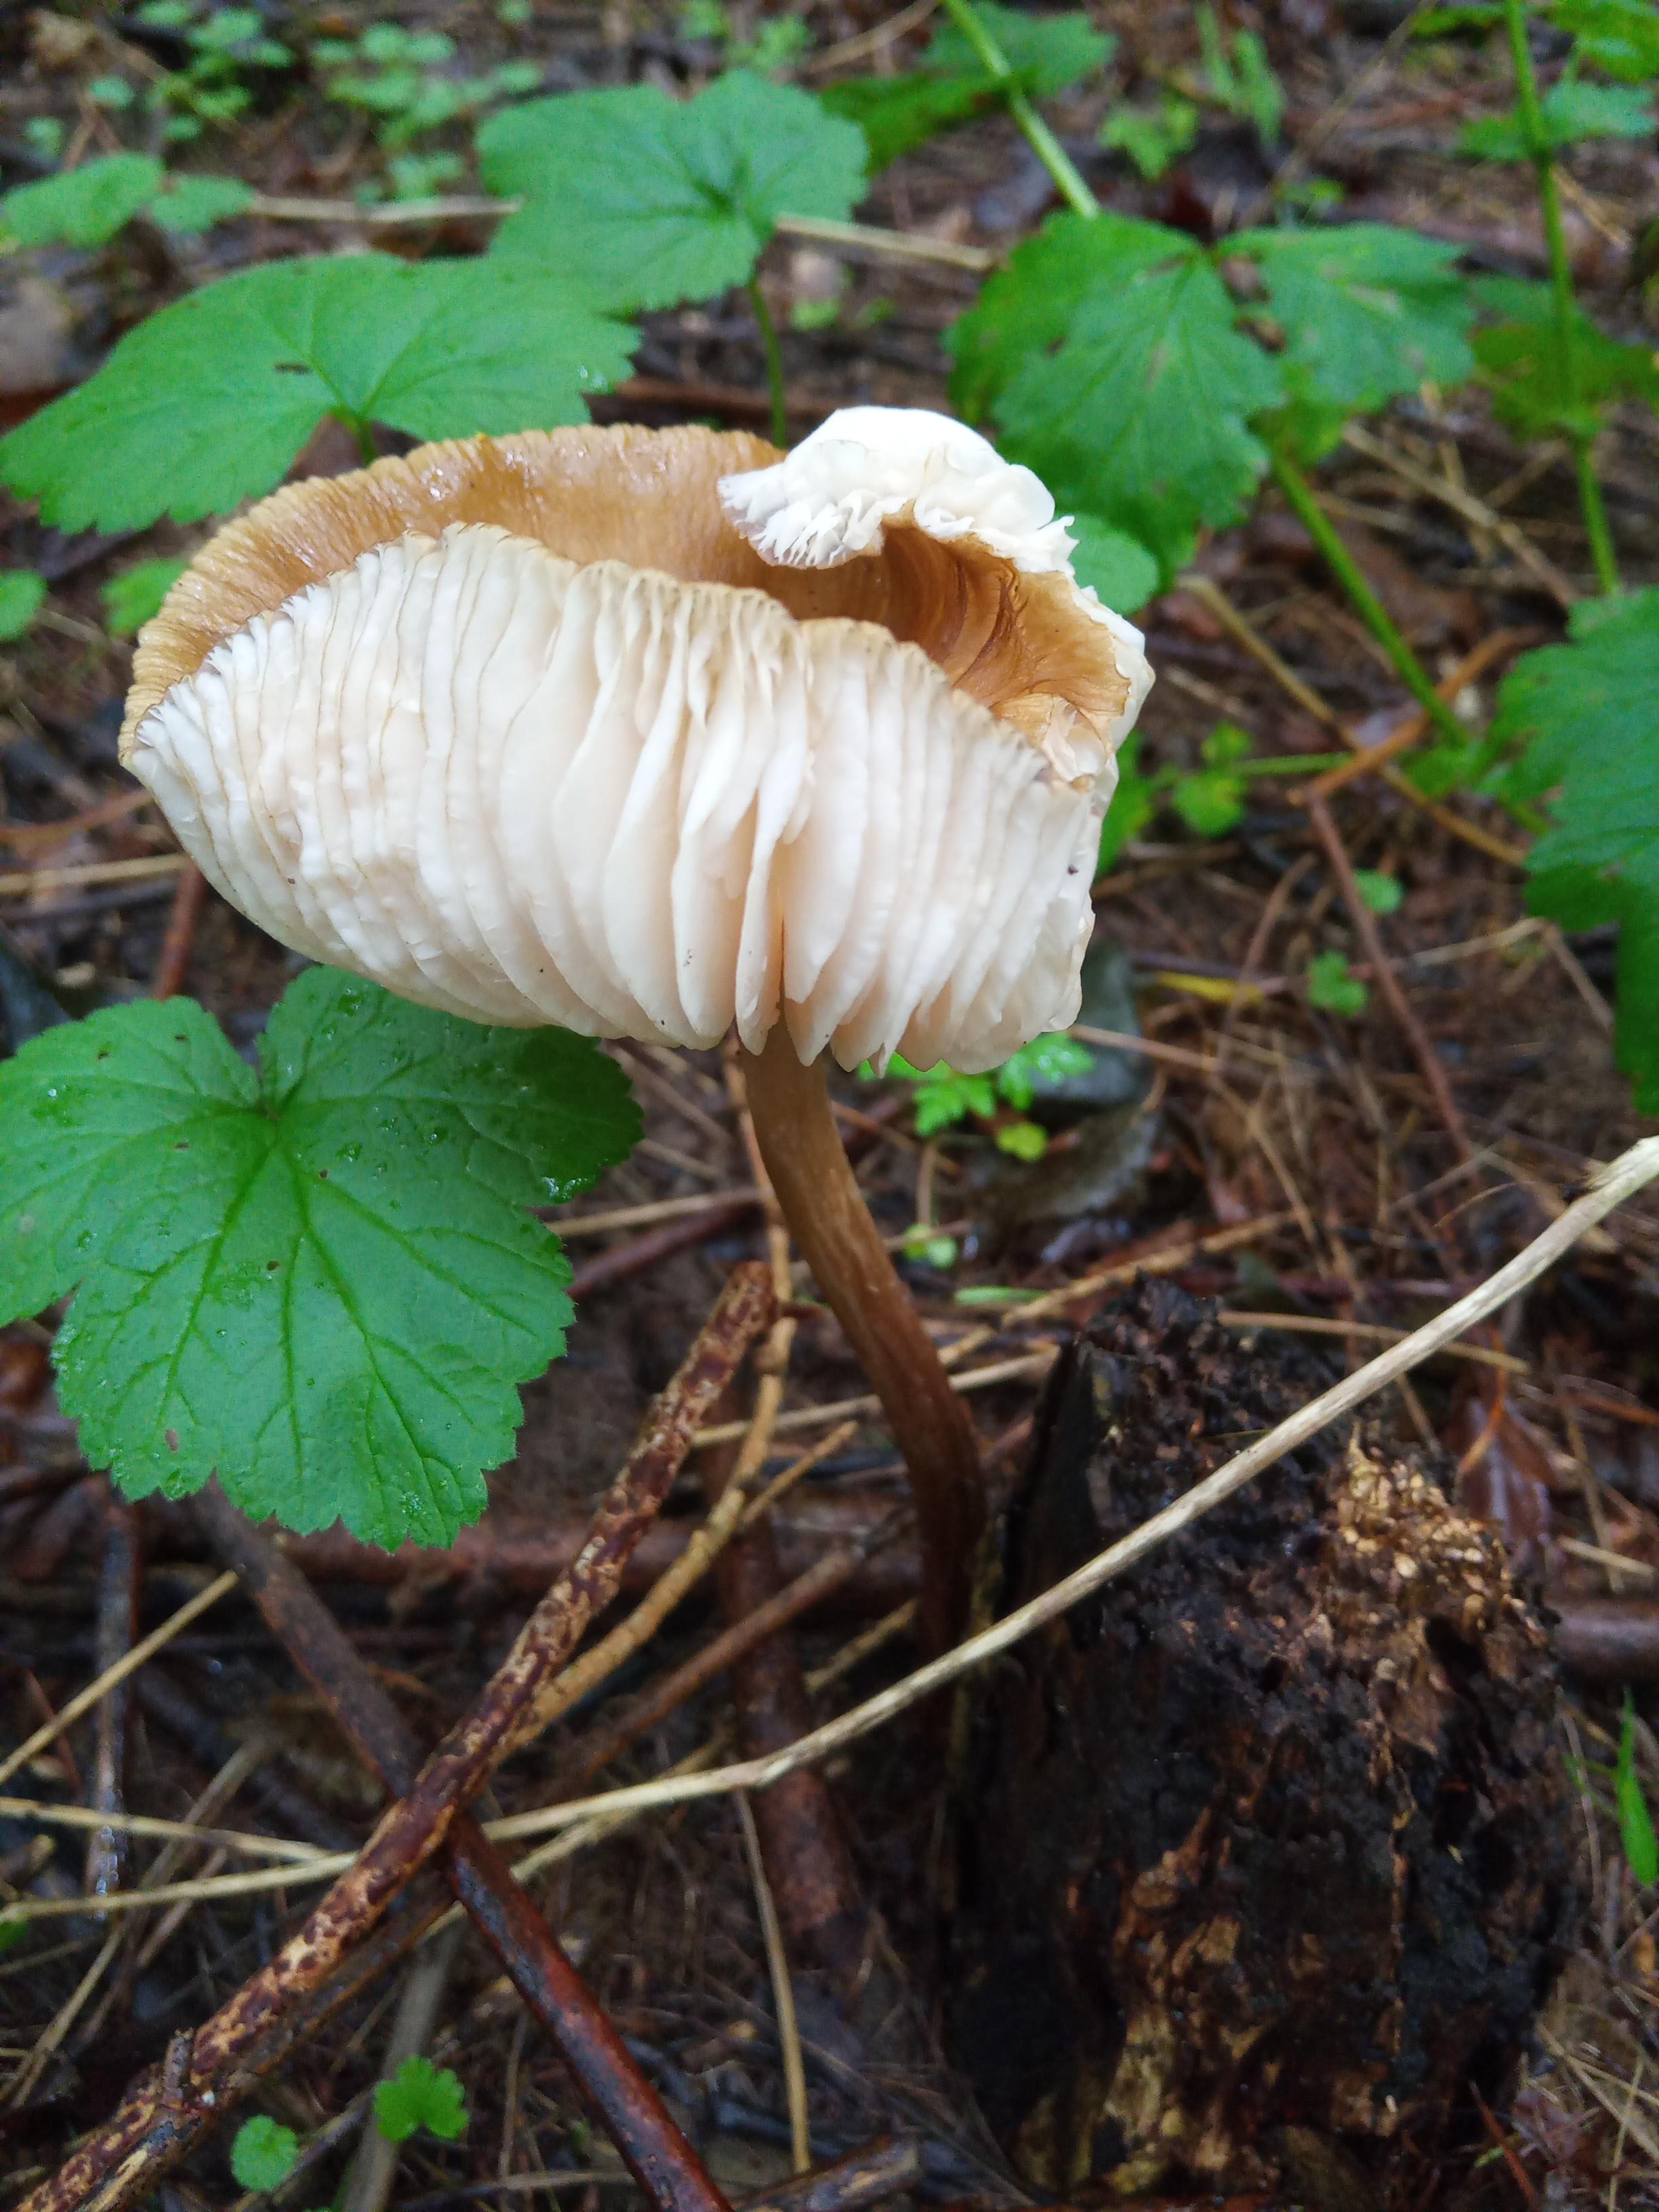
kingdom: Fungi
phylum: Basidiomycota
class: Agaricomycetes
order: Agaricales
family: Physalacriaceae
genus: Hymenopellis
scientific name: Hymenopellis radicata
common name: almindelig pælerodshat
